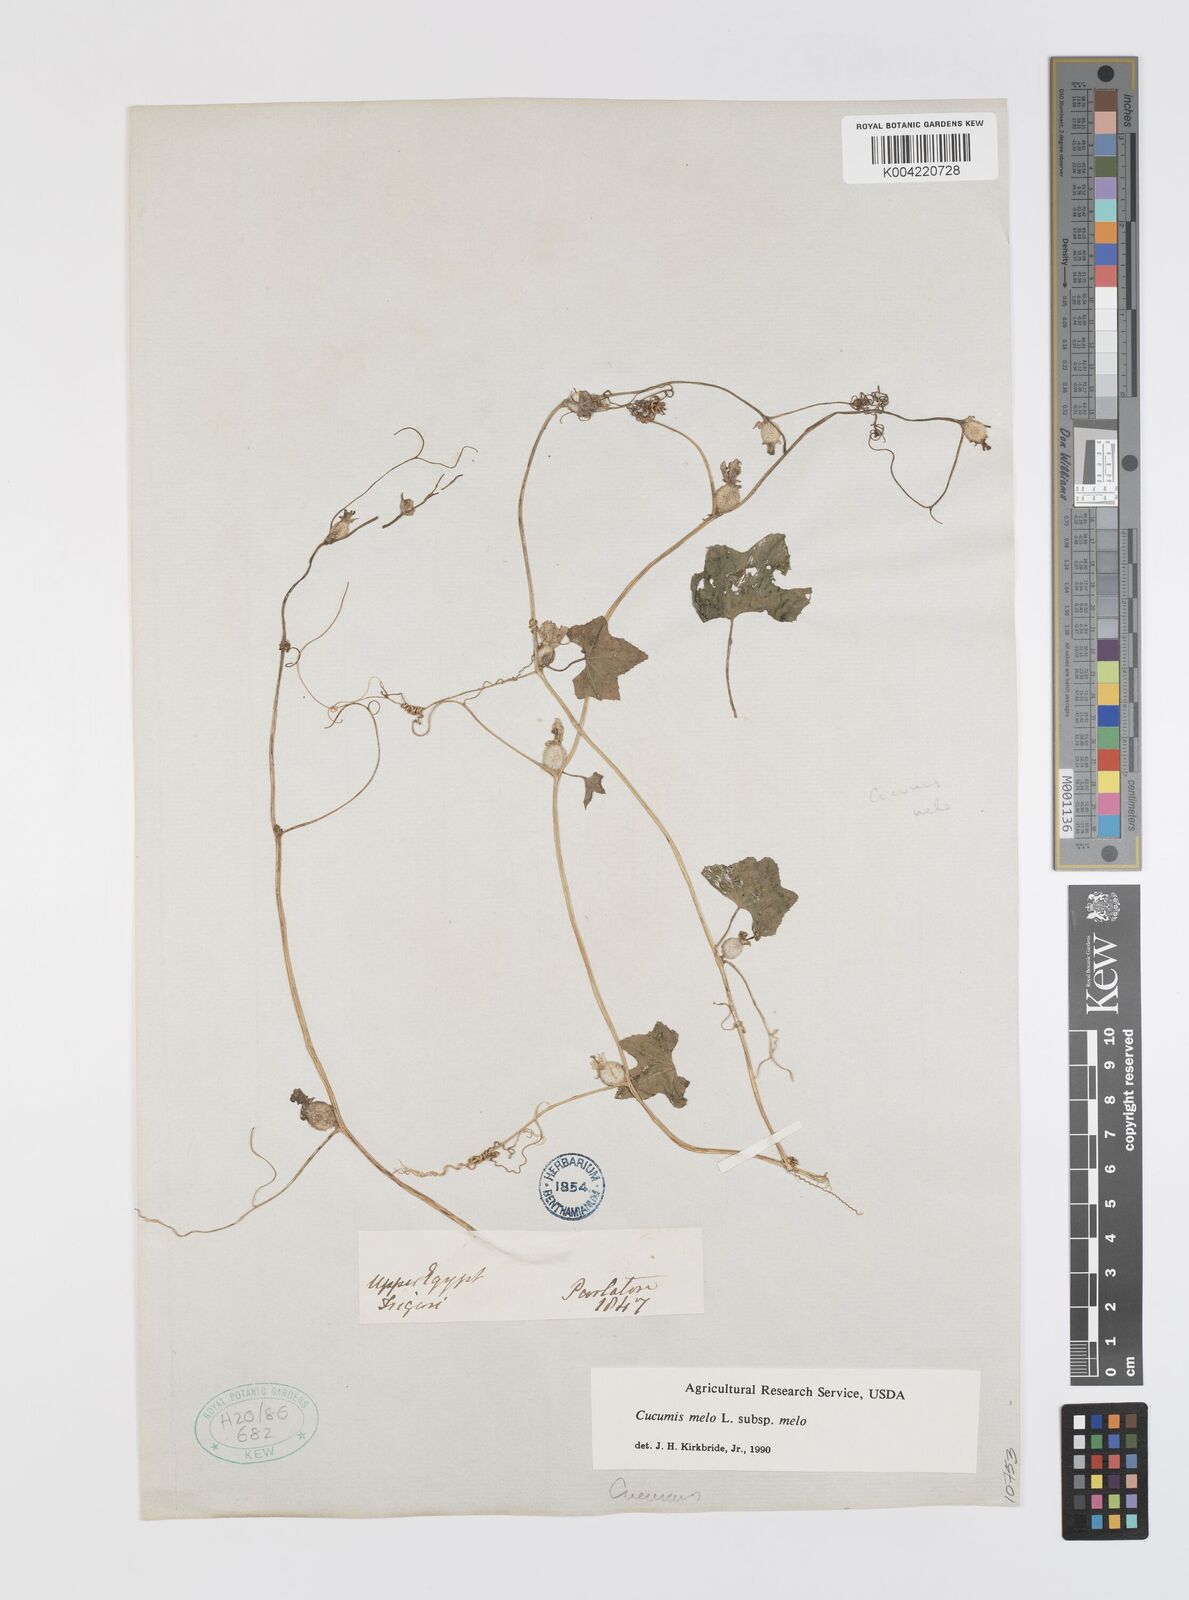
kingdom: Plantae
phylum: Tracheophyta
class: Magnoliopsida
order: Cucurbitales
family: Cucurbitaceae
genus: Cucumis
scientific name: Cucumis melo
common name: Melon
